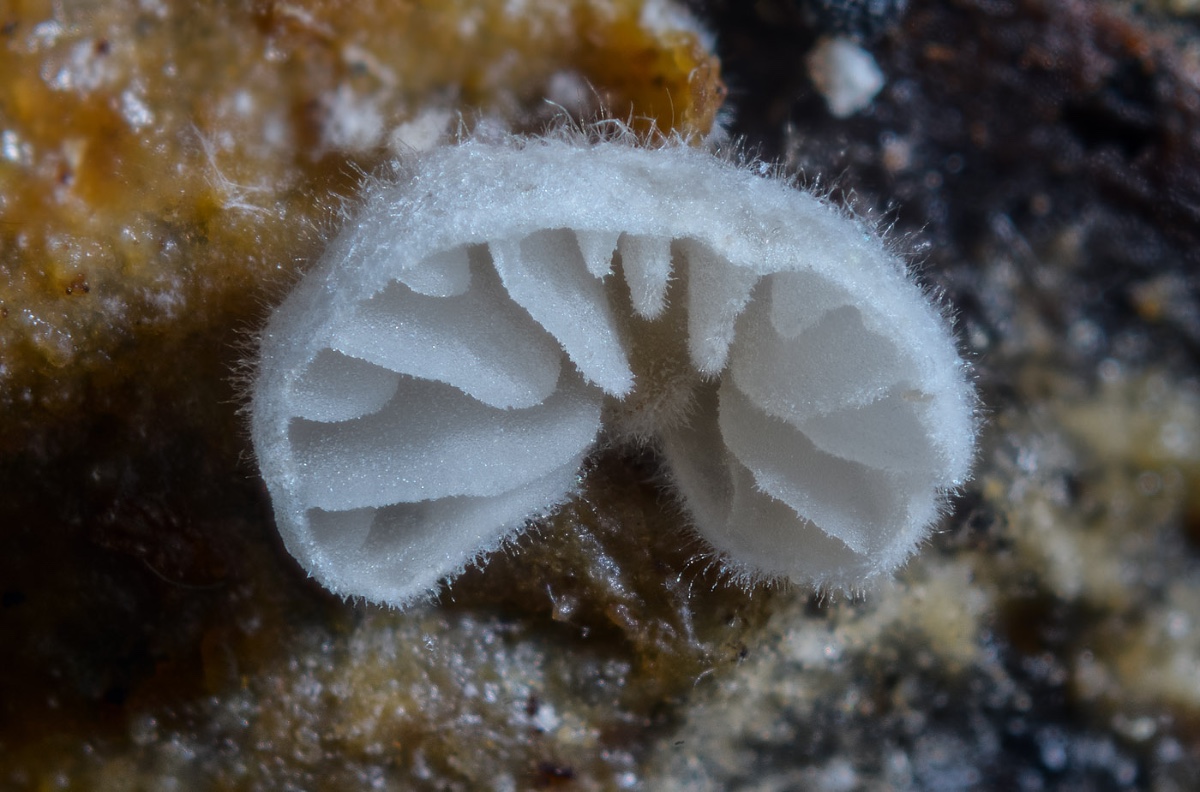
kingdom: Fungi
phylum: Basidiomycota
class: Agaricomycetes
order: Agaricales
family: Entolomataceae
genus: Clitopilus
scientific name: Clitopilus hobsonii
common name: Miller's oysterling
